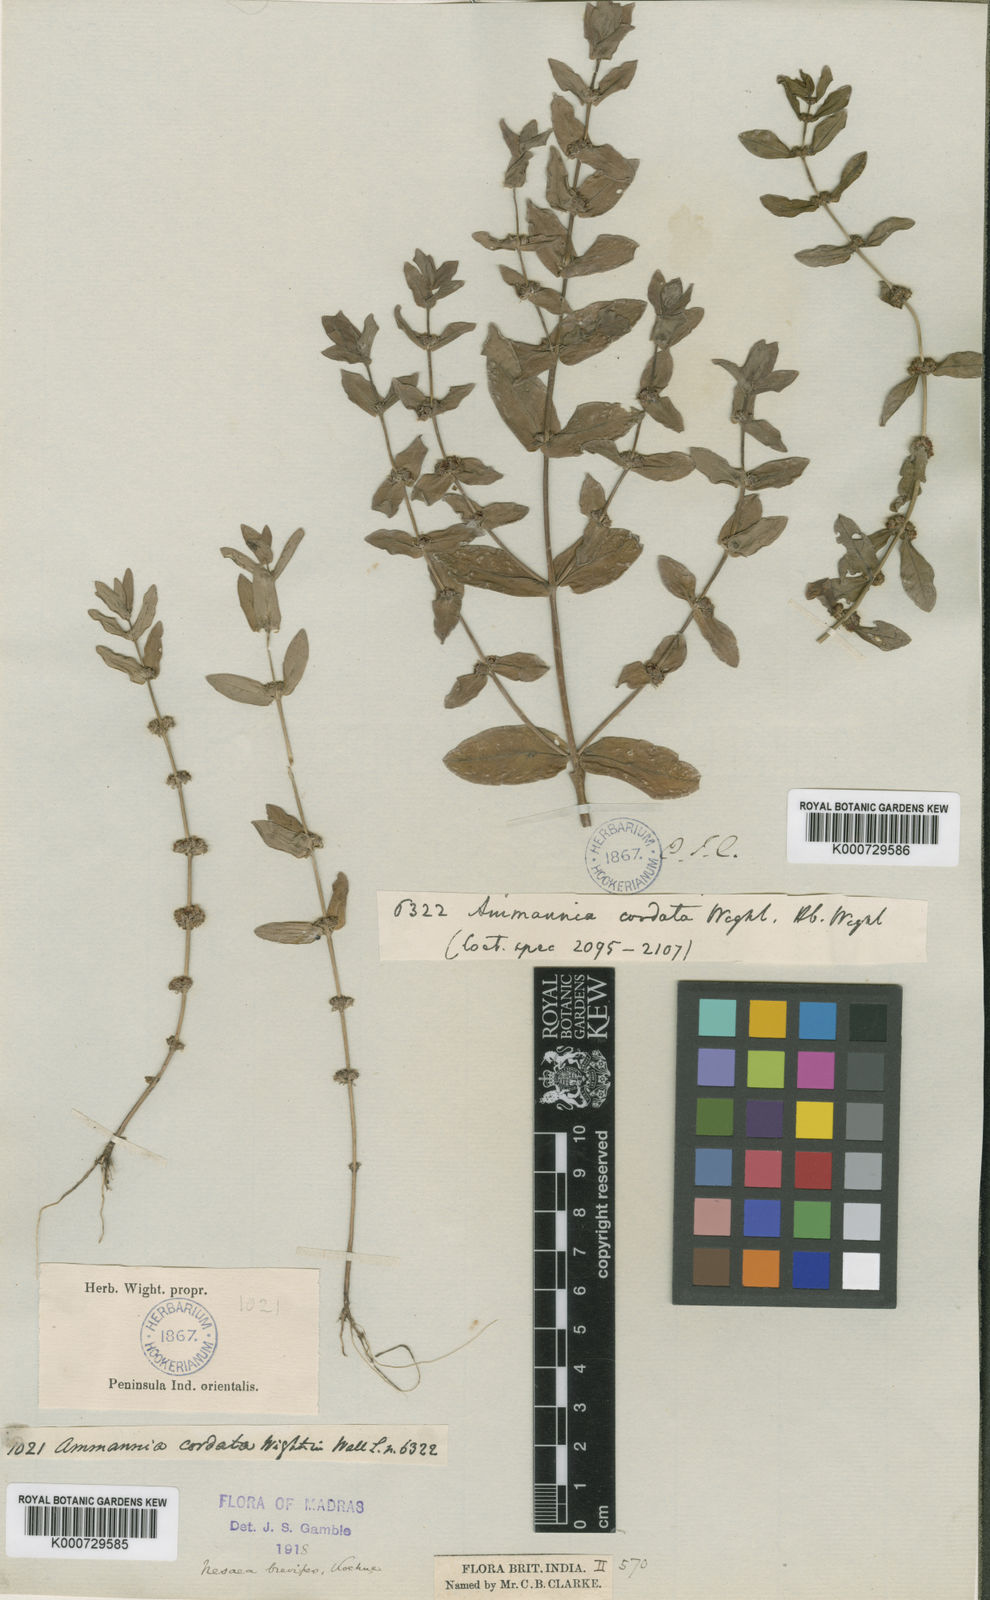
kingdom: Plantae
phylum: Tracheophyta
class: Magnoliopsida
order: Myrtales
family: Lythraceae
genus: Ammannia
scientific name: Ammannia cordata
